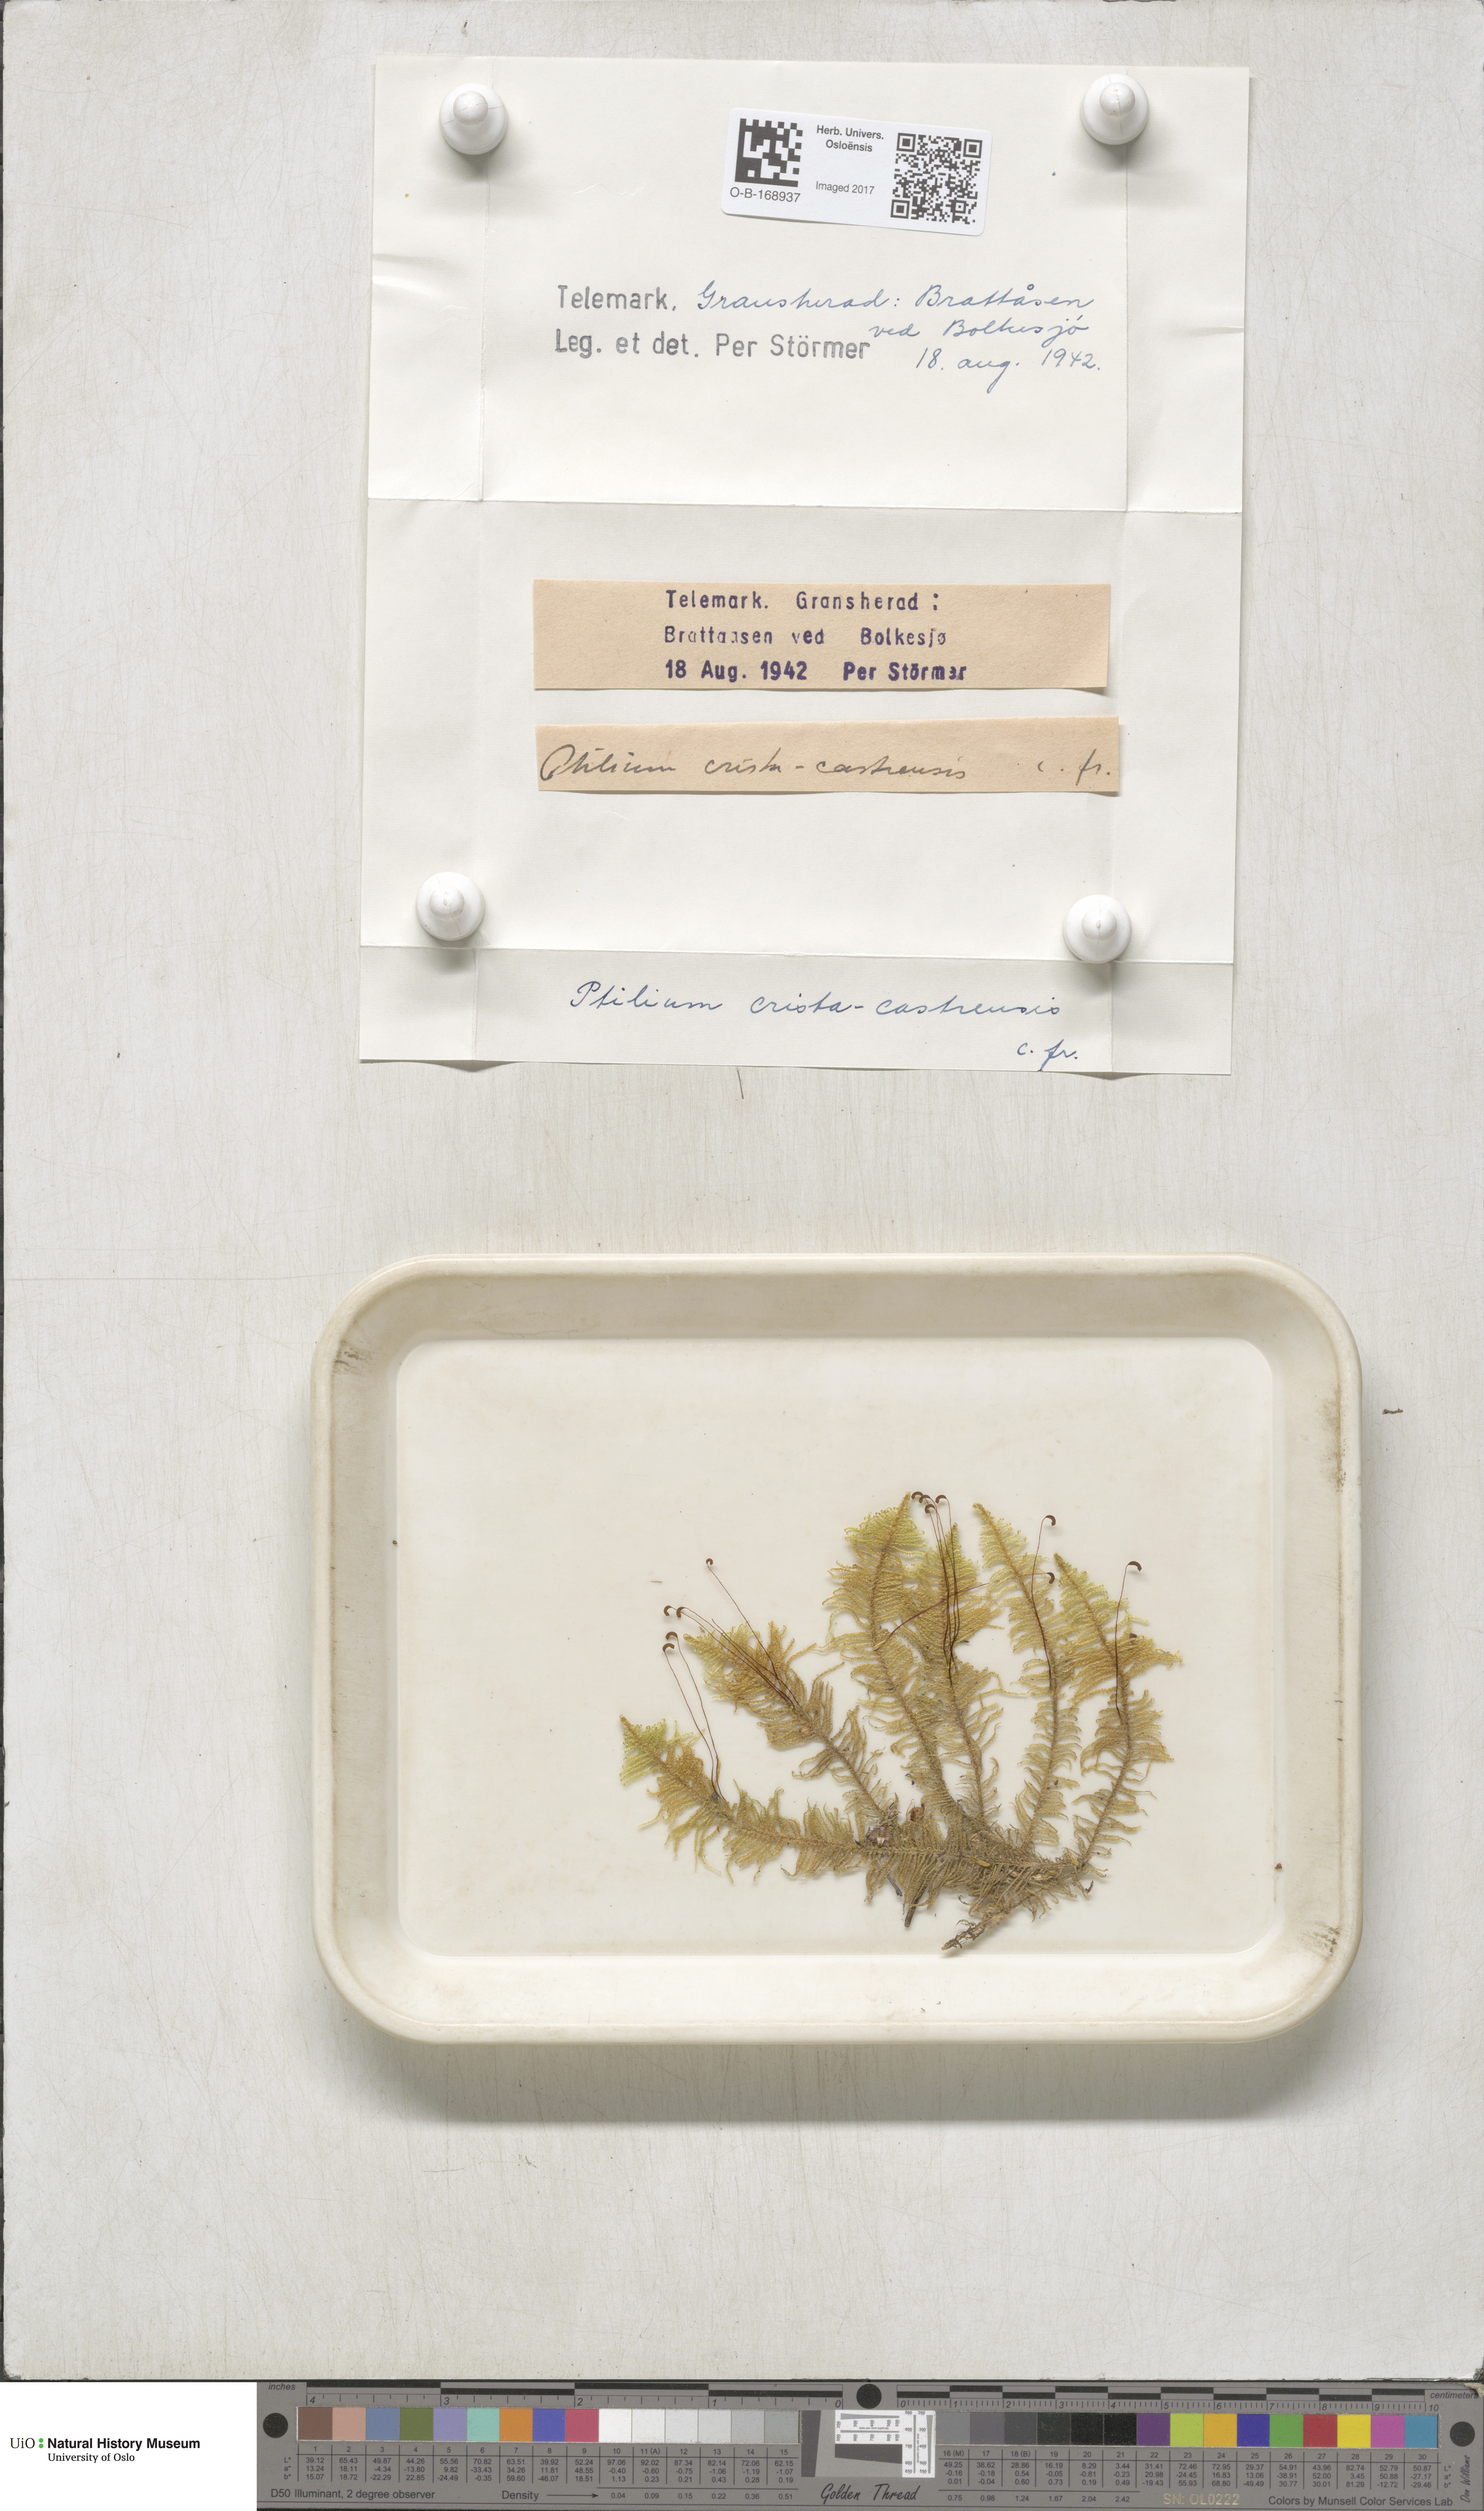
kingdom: Plantae
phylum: Bryophyta
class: Bryopsida
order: Hypnales
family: Pylaisiaceae
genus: Ptilium
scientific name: Ptilium crista-castrensis
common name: Knight's plume moss
